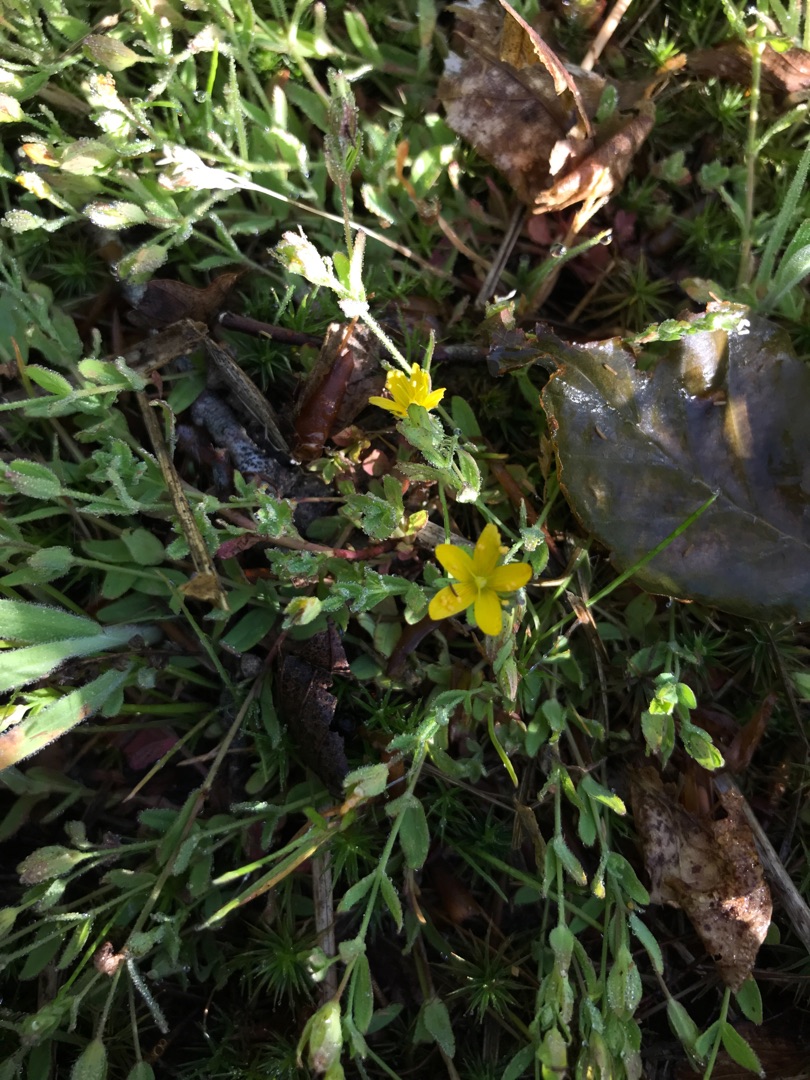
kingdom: Plantae
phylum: Tracheophyta
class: Magnoliopsida
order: Malpighiales
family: Hypericaceae
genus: Hypericum
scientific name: Hypericum humifusum
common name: Dværg-perikon
